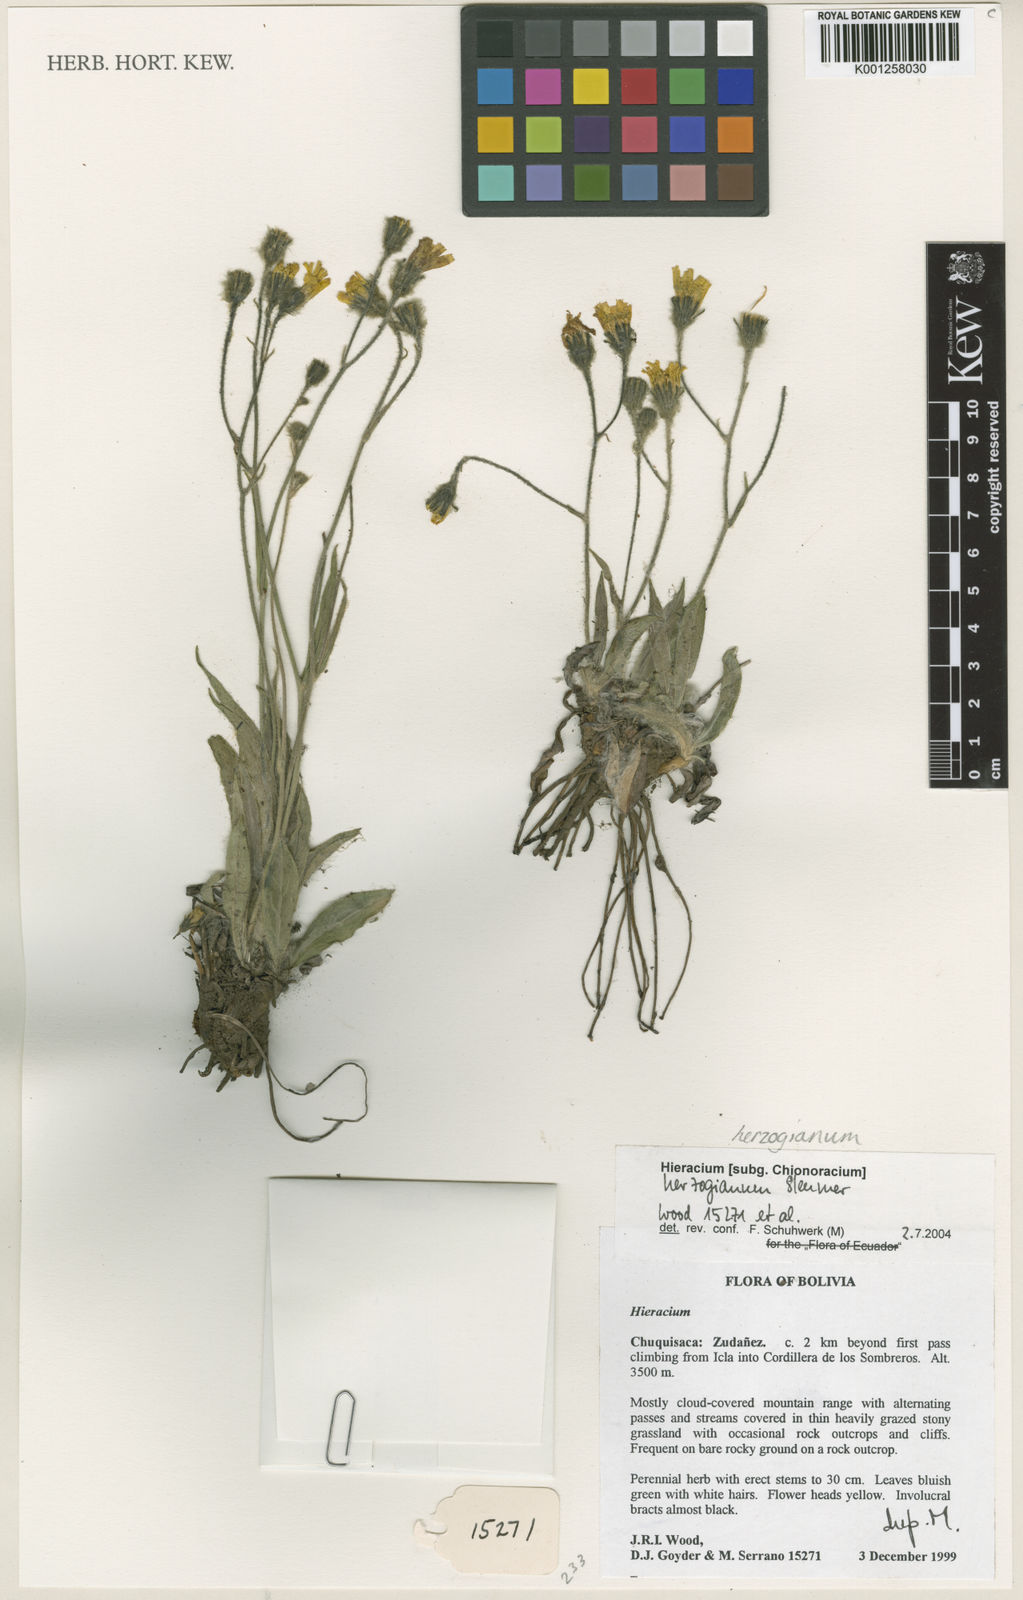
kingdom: Plantae
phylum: Tracheophyta
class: Magnoliopsida
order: Asterales
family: Asteraceae
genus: Hieracium
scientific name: Hieracium herzogianum
